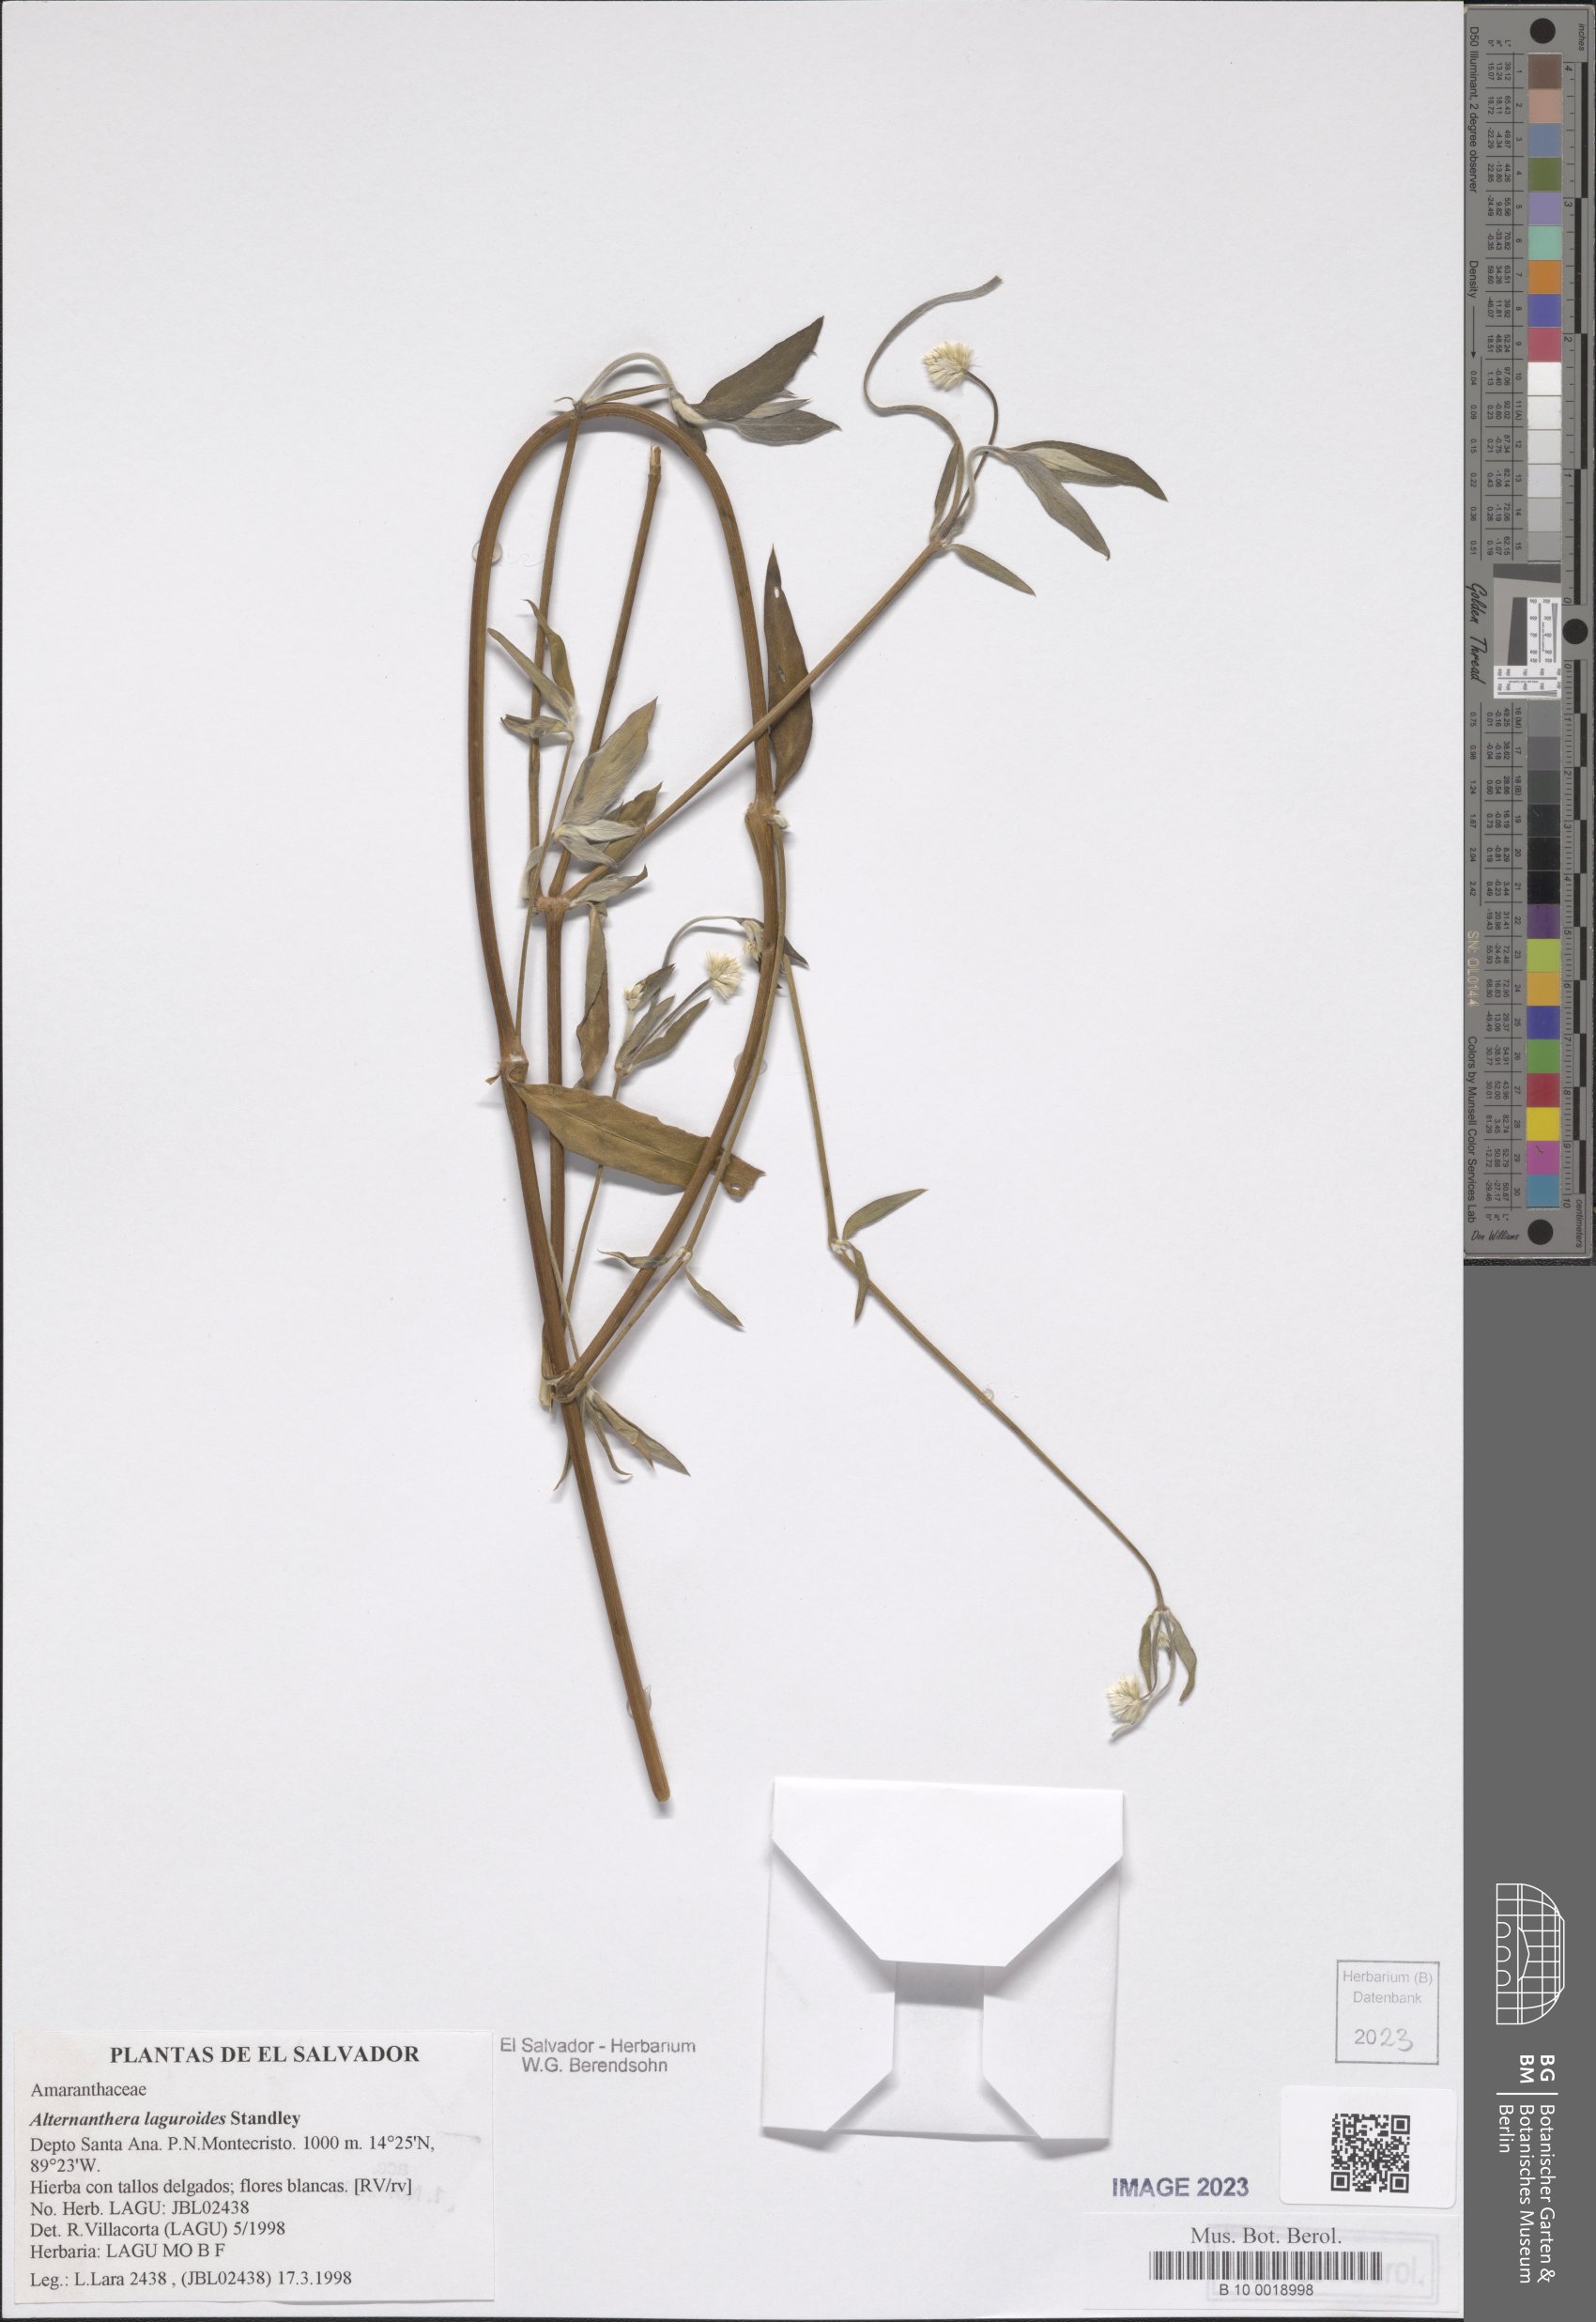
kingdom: Plantae
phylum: Tracheophyta
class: Magnoliopsida
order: Caryophyllales
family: Amaranthaceae
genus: Alternanthera
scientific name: Alternanthera laguroides
